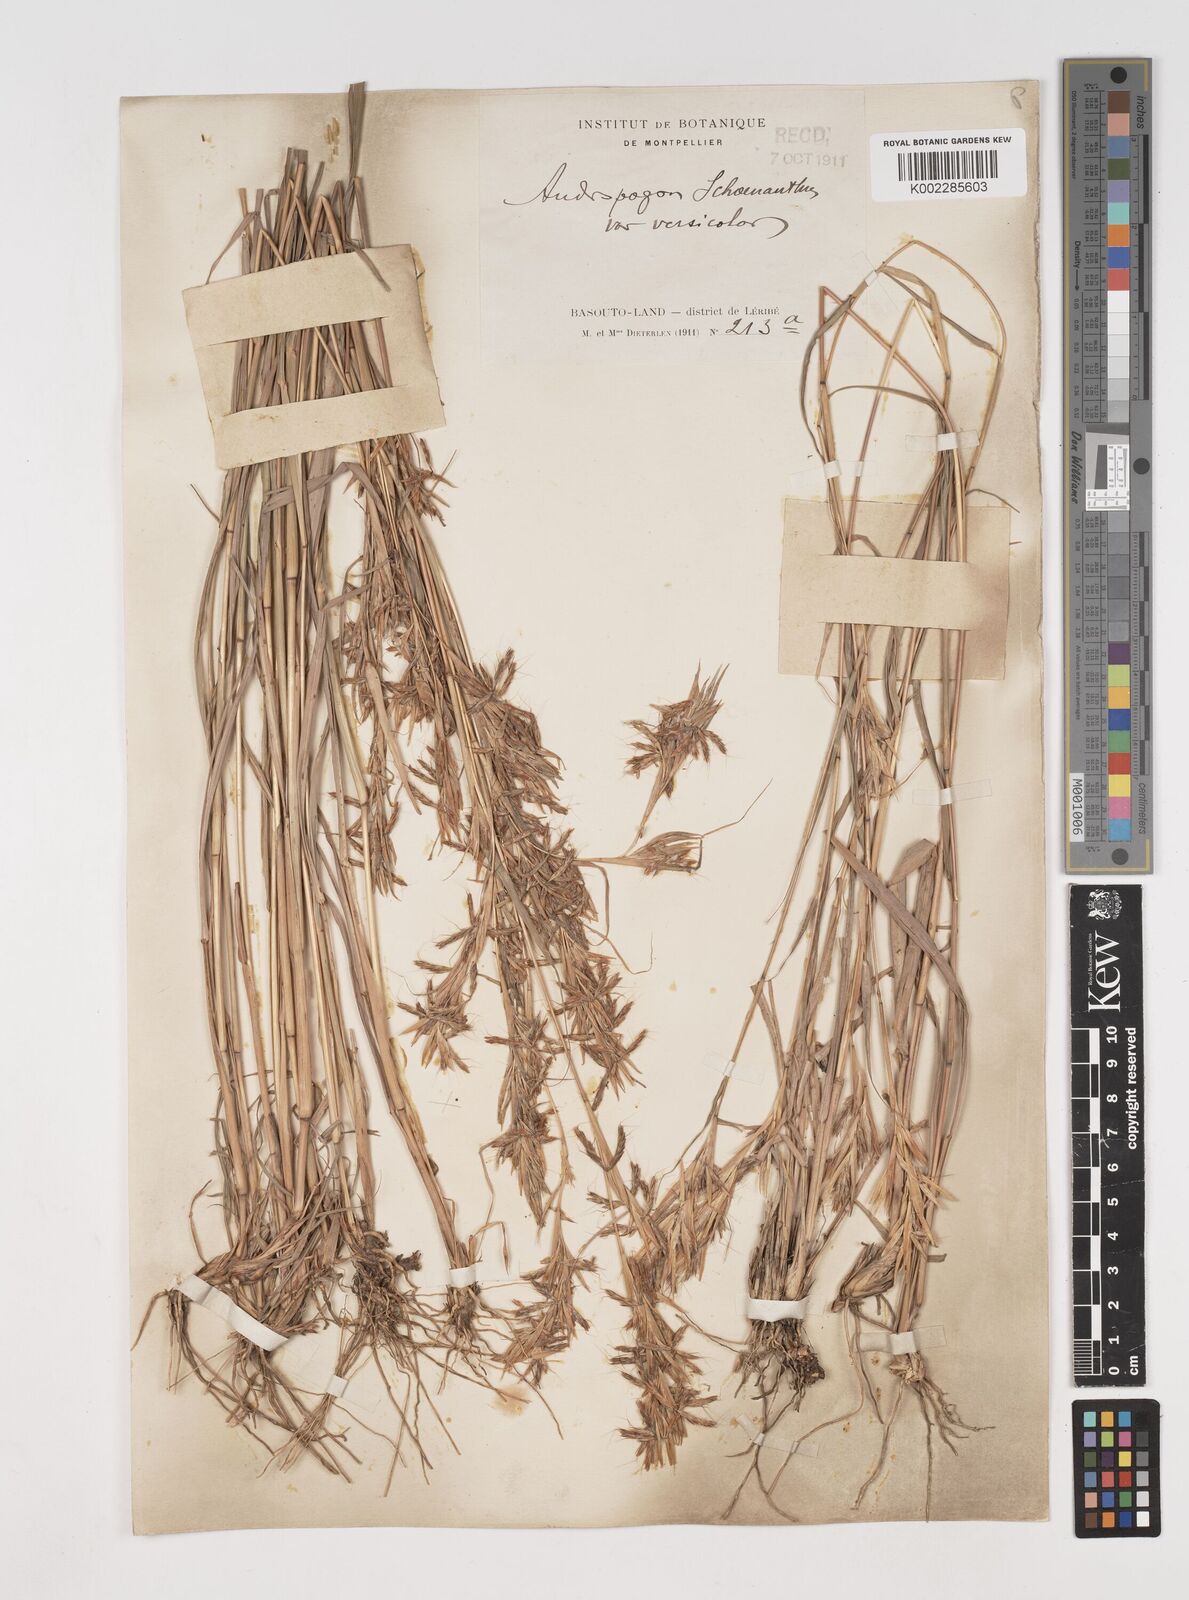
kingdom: Plantae
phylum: Tracheophyta
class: Liliopsida
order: Poales
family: Poaceae
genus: Cymbopogon
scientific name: Cymbopogon caesius
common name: Kachi grass
